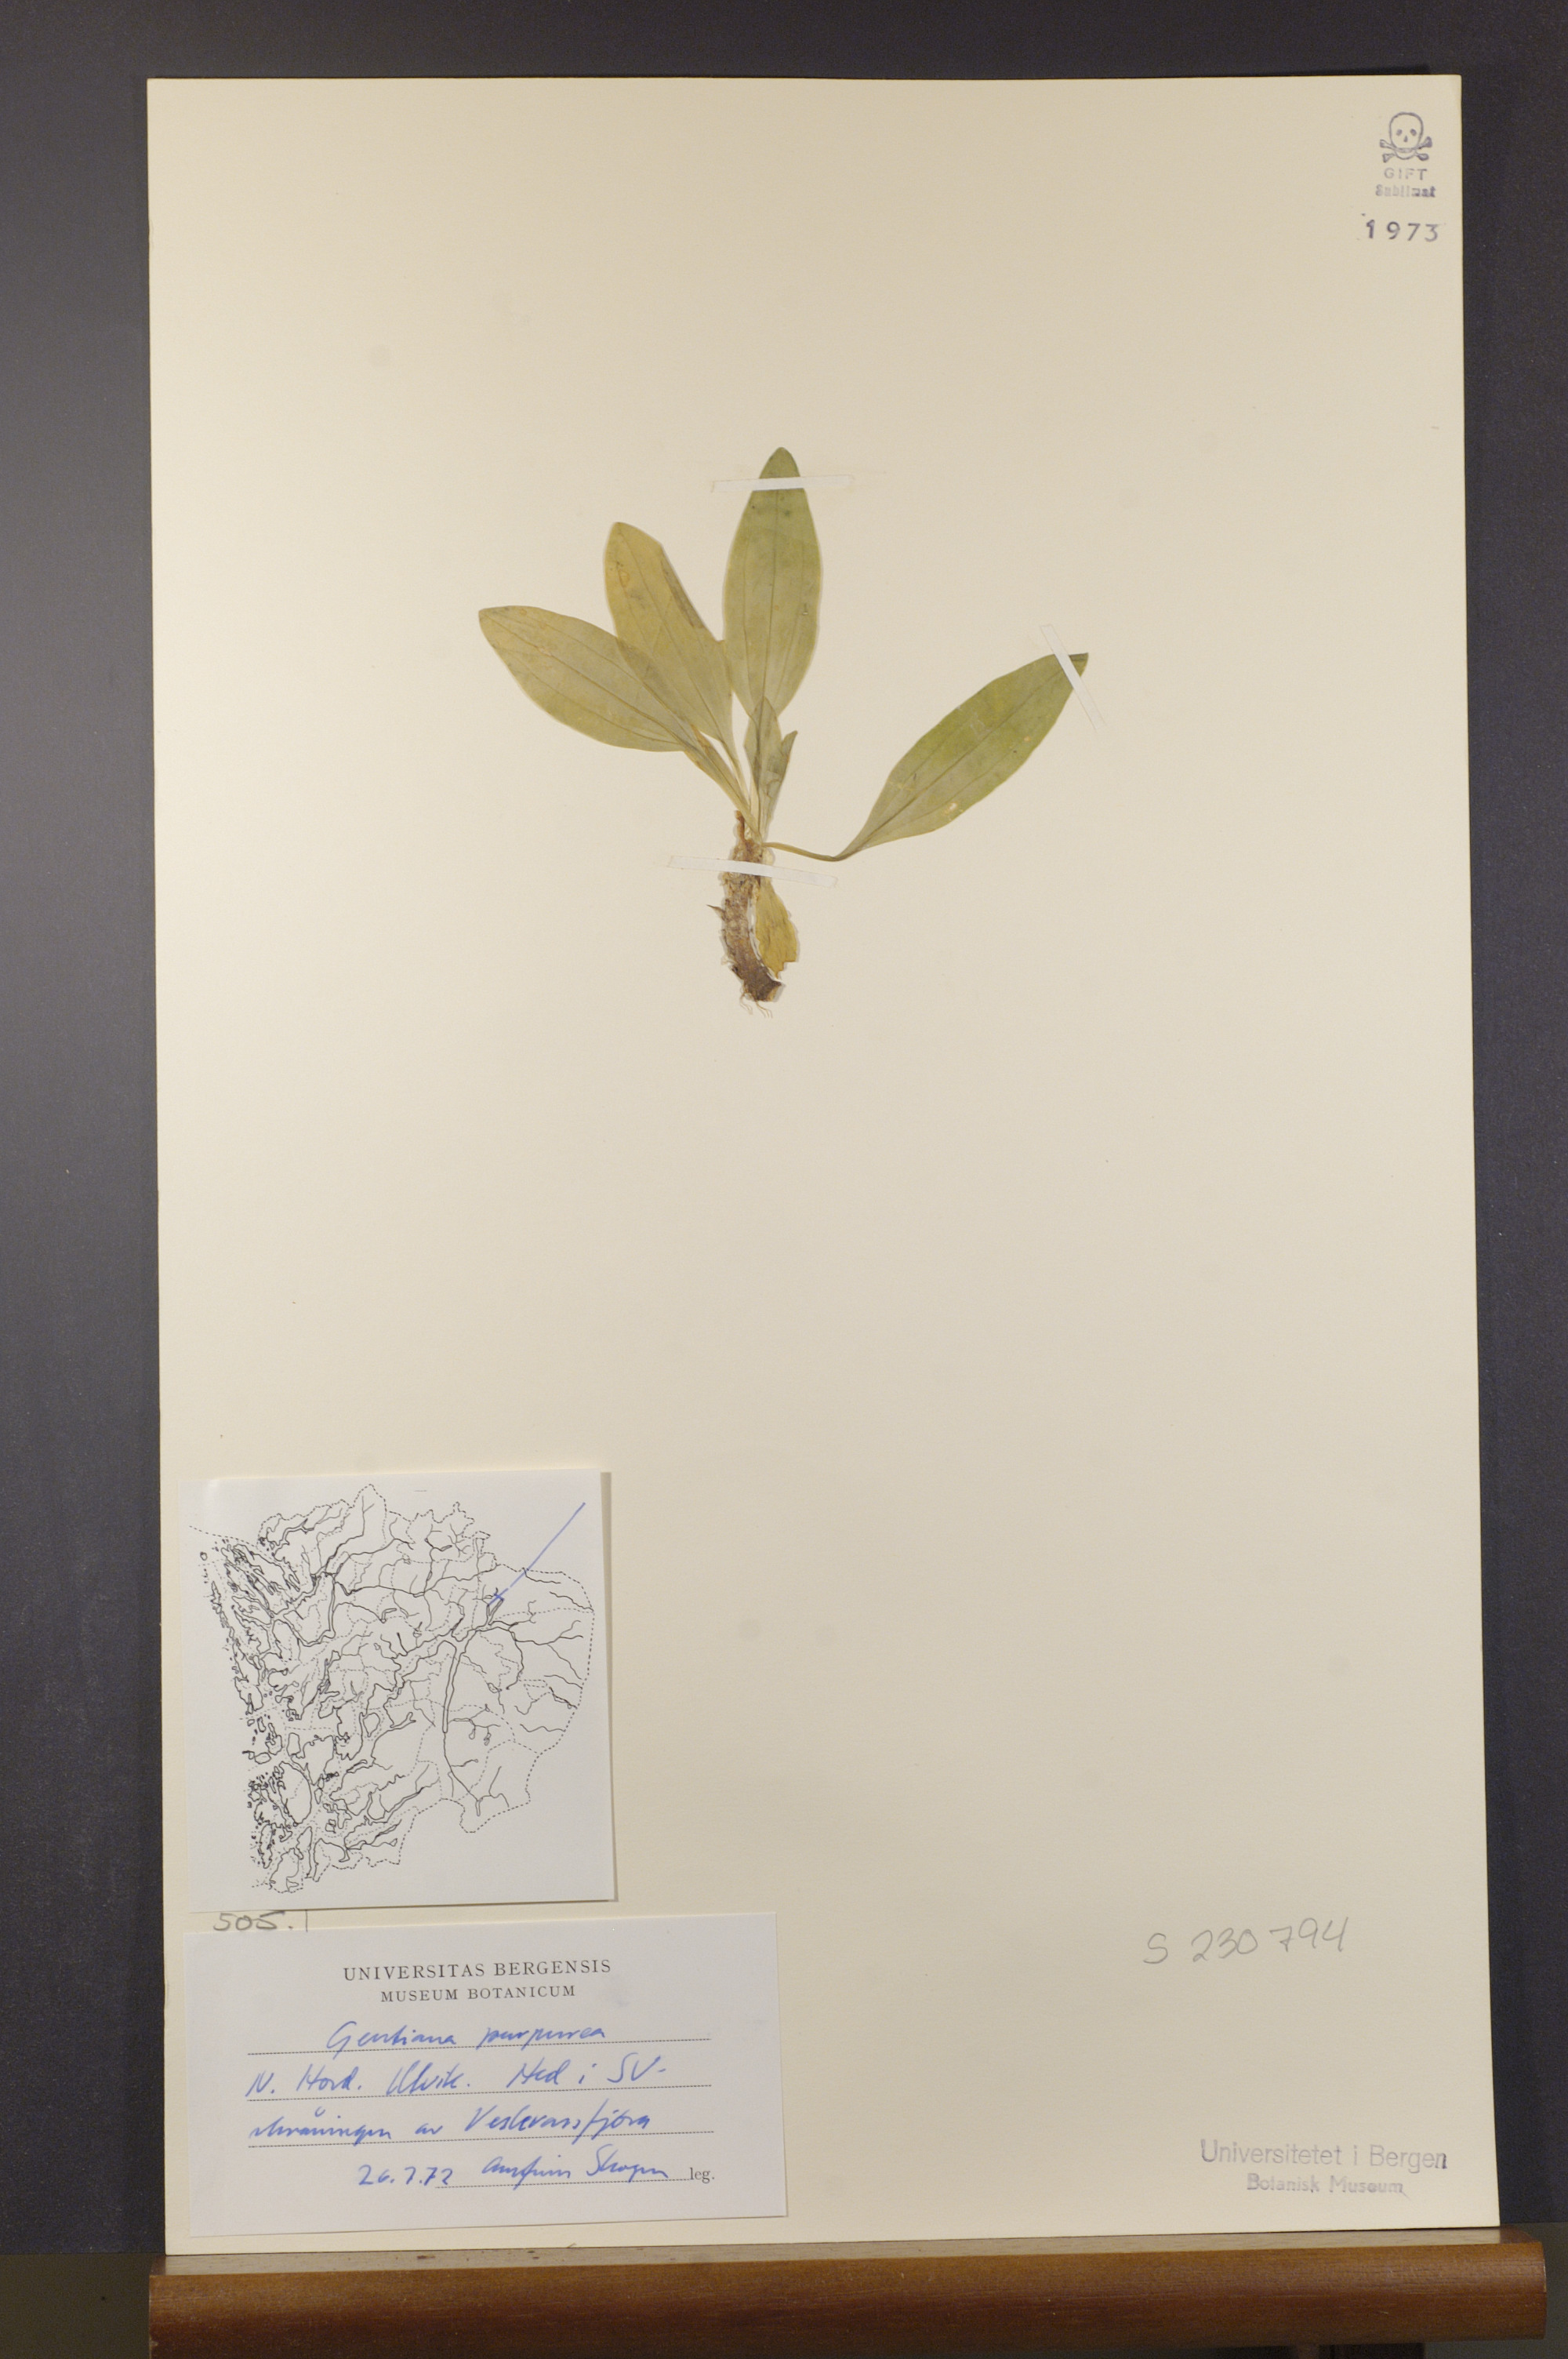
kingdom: Plantae
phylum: Tracheophyta
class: Magnoliopsida
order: Gentianales
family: Gentianaceae
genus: Gentiana
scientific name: Gentiana purpurea
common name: Purple gentian
